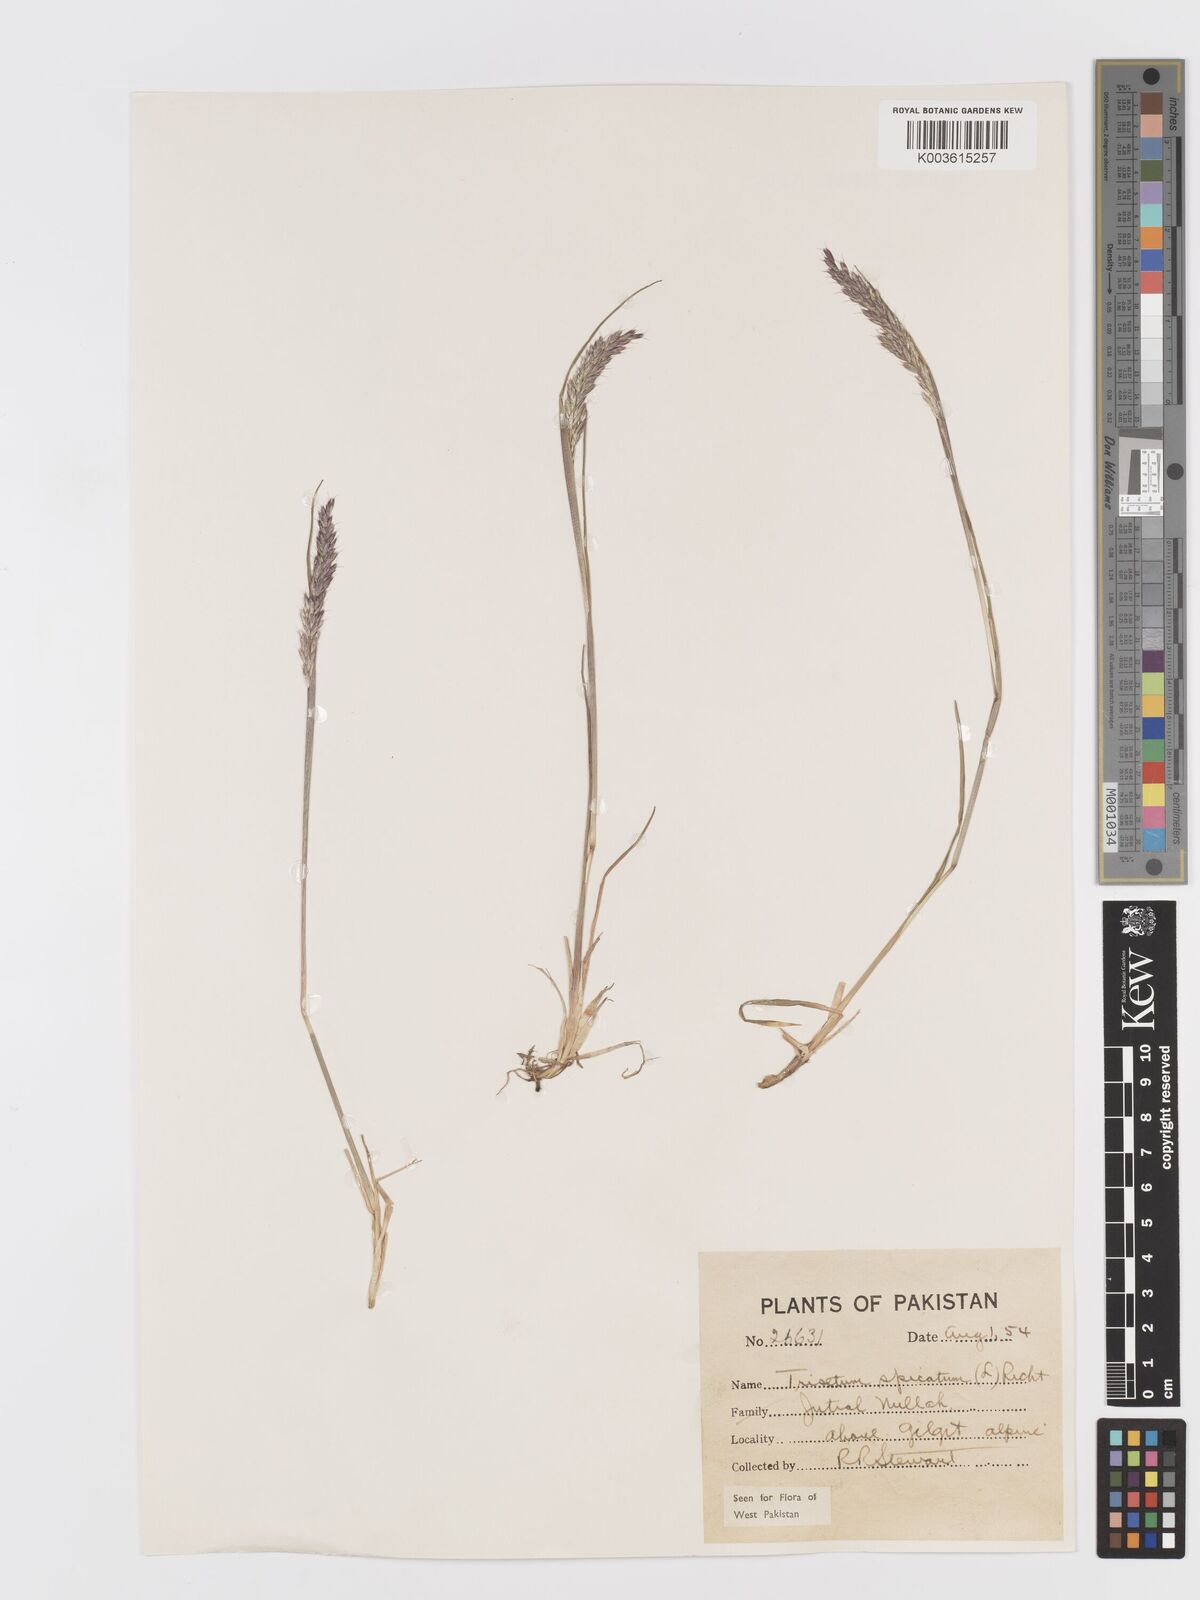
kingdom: Plantae
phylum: Tracheophyta
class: Liliopsida
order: Poales
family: Poaceae
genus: Koeleria
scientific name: Koeleria spicata
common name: Mountain trisetum
